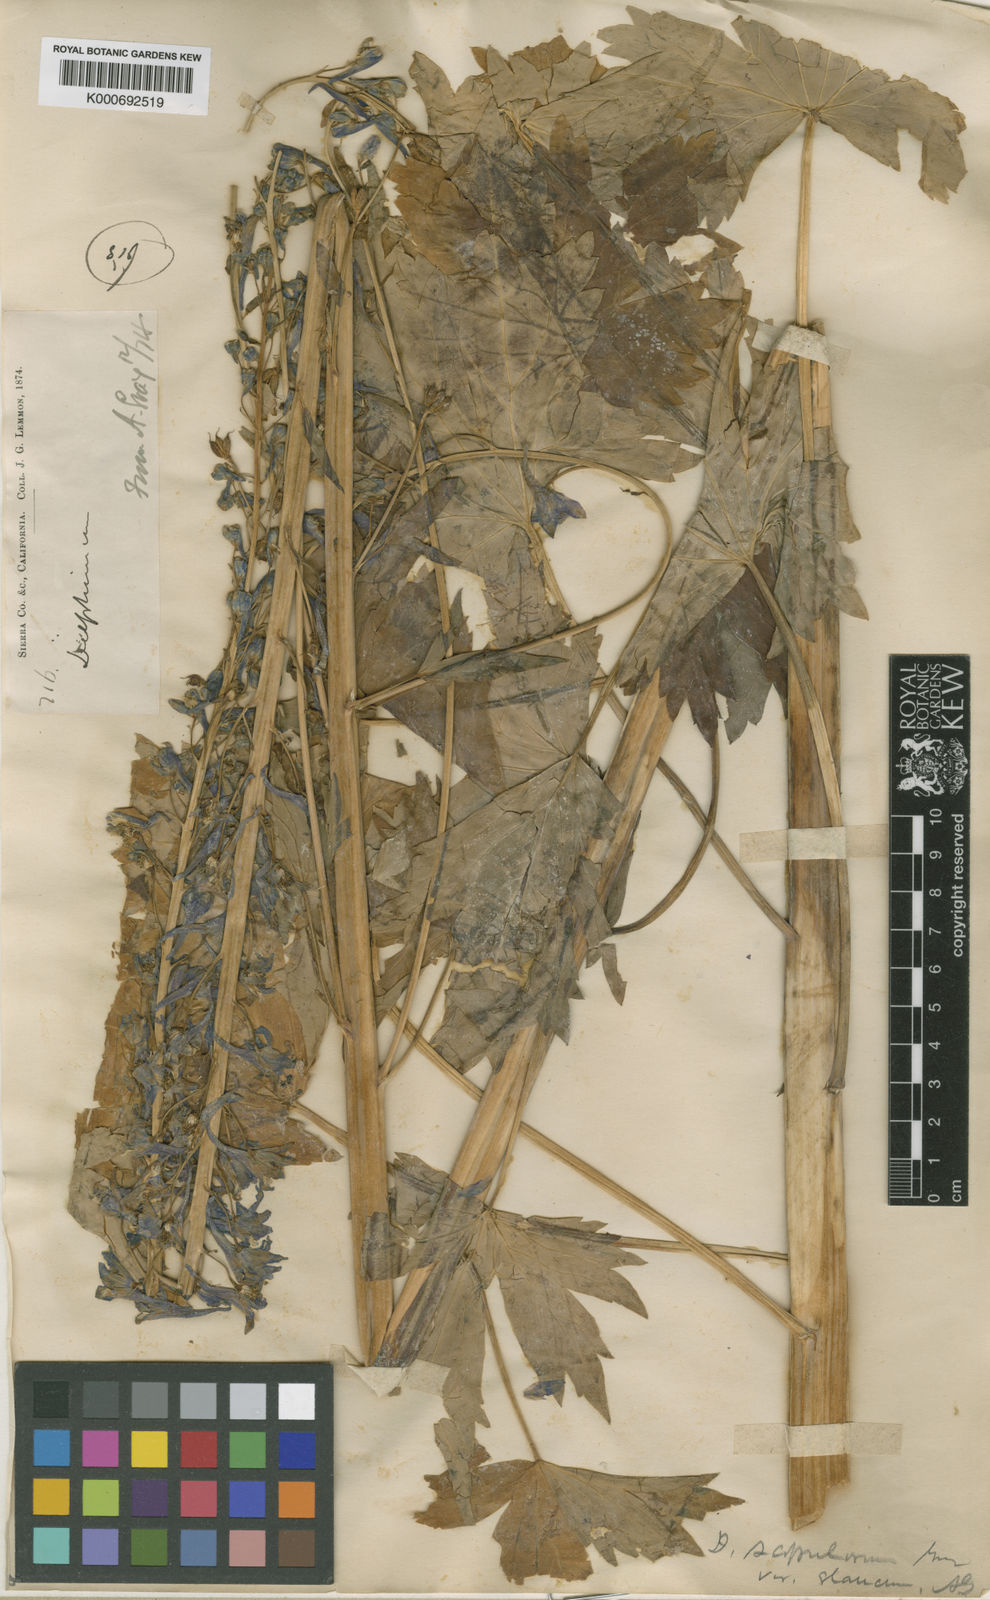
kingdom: Plantae
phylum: Tracheophyta
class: Magnoliopsida
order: Ranunculales
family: Ranunculaceae
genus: Delphinium
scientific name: Delphinium scopulorum
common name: Rocky mountain larkspur
